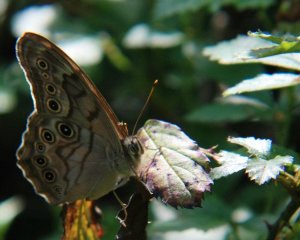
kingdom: Animalia
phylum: Arthropoda
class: Insecta
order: Lepidoptera
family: Nymphalidae
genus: Lethe
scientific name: Lethe creola
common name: Creole Pearly-Eye
